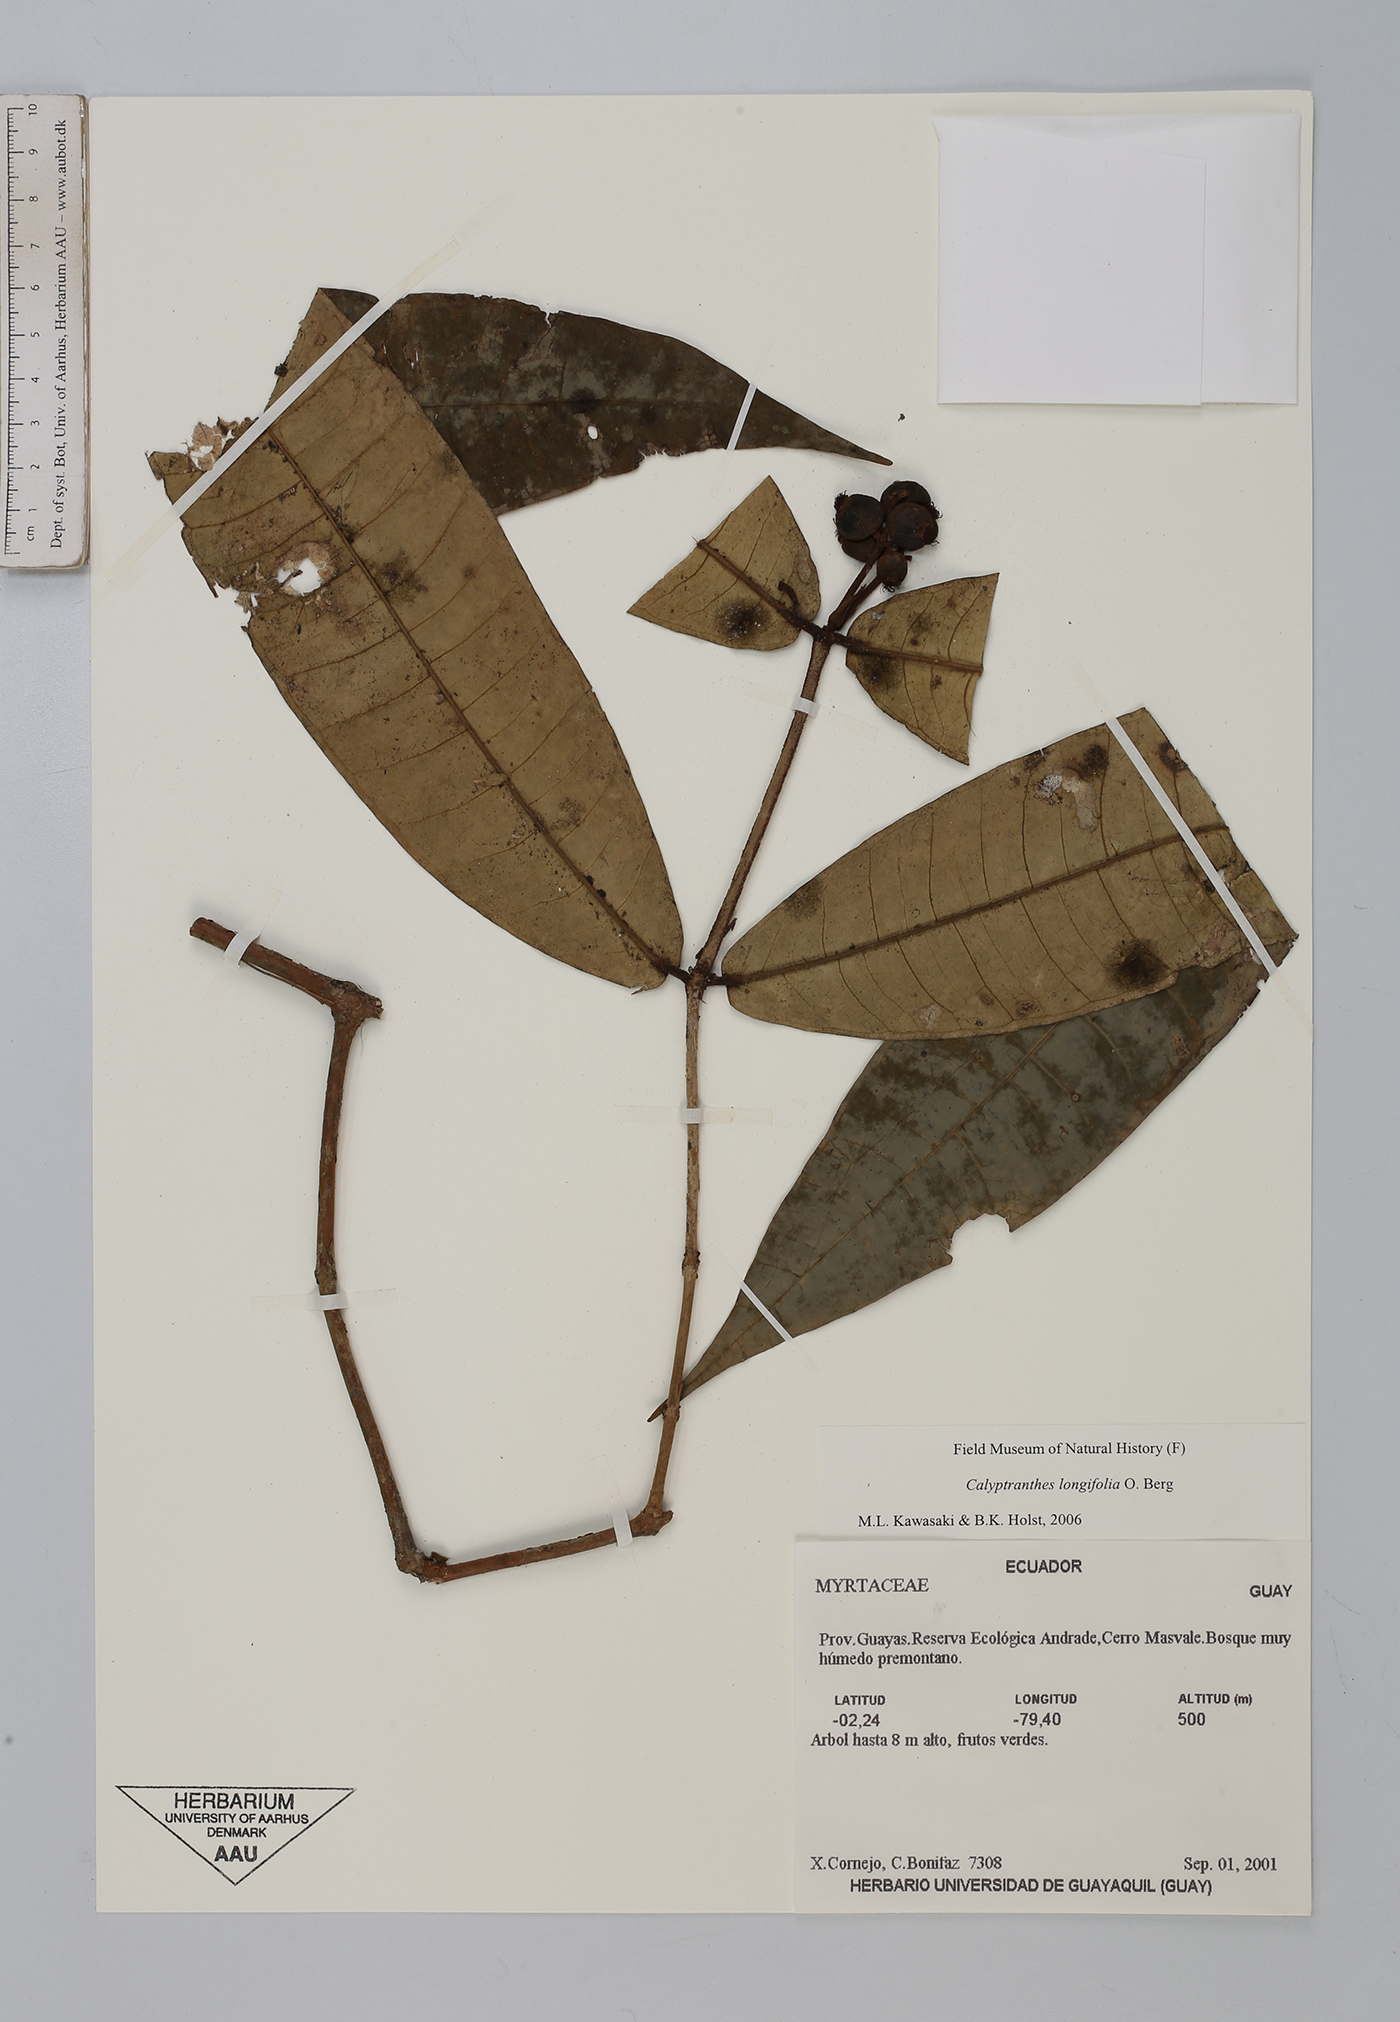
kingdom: Plantae
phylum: Tracheophyta
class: Magnoliopsida
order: Myrtales
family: Myrtaceae
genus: Myrcia
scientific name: Myrcia telephylla
